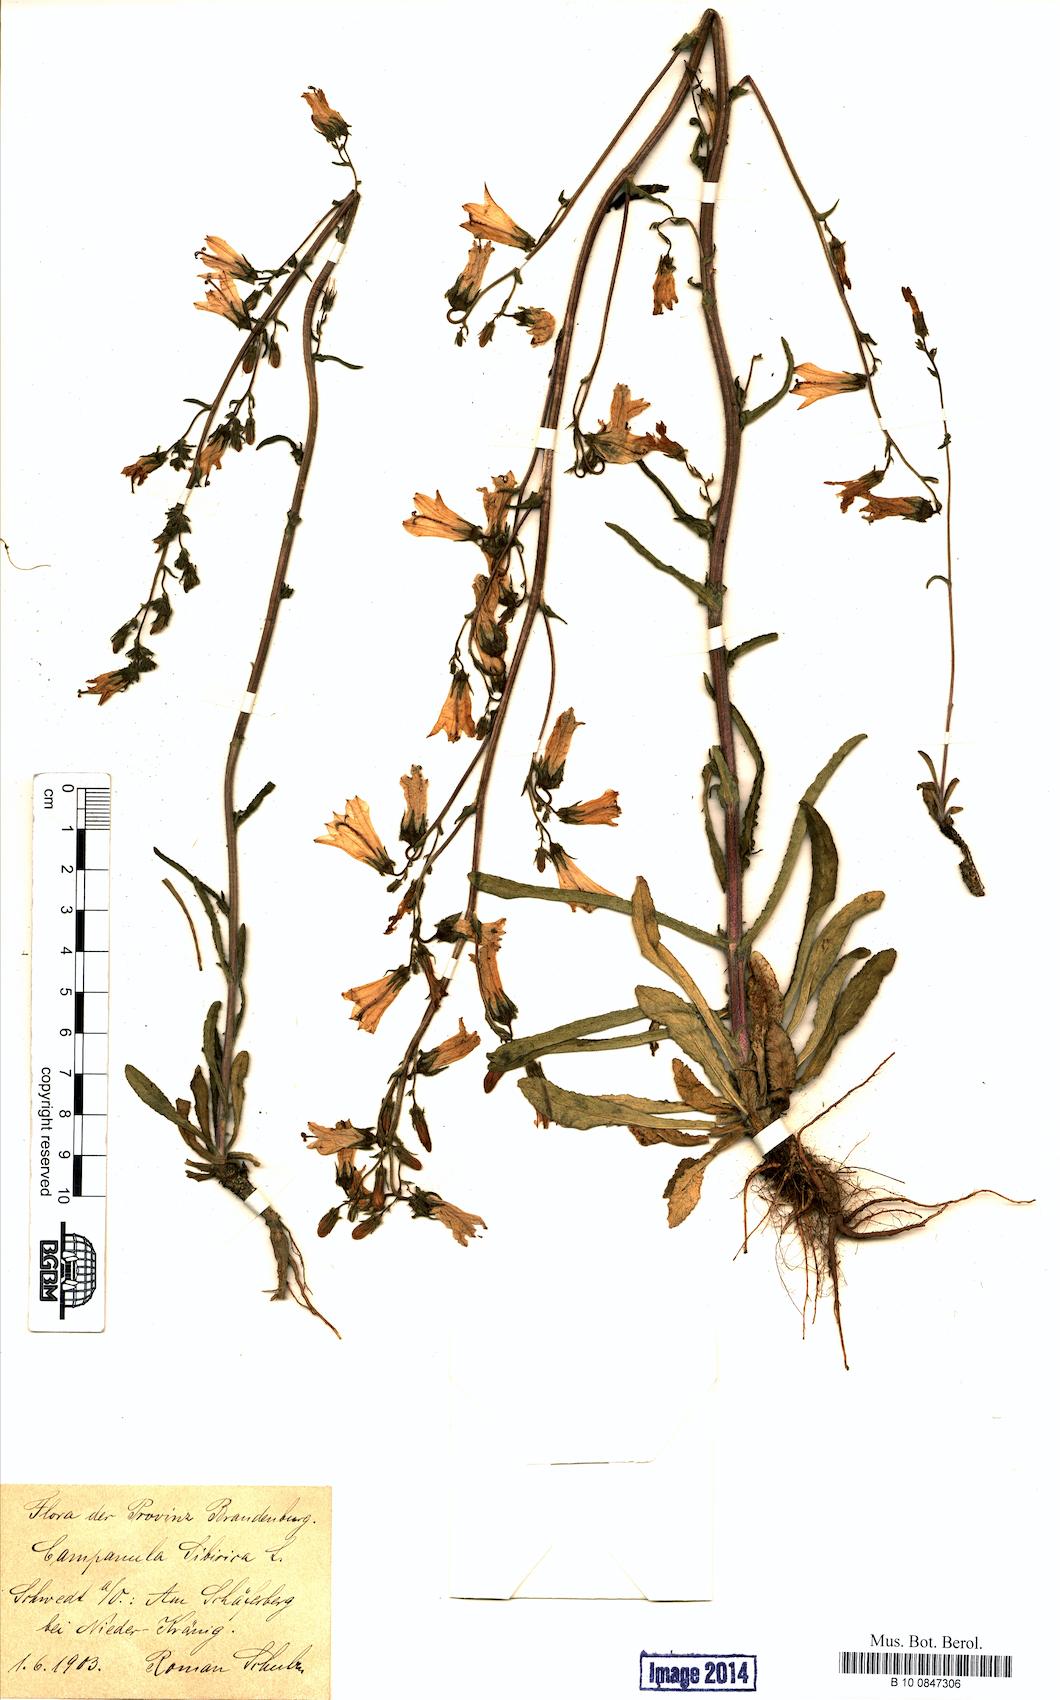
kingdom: Plantae
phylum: Tracheophyta
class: Magnoliopsida
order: Asterales
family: Campanulaceae
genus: Campanula
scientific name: Campanula sibirica
